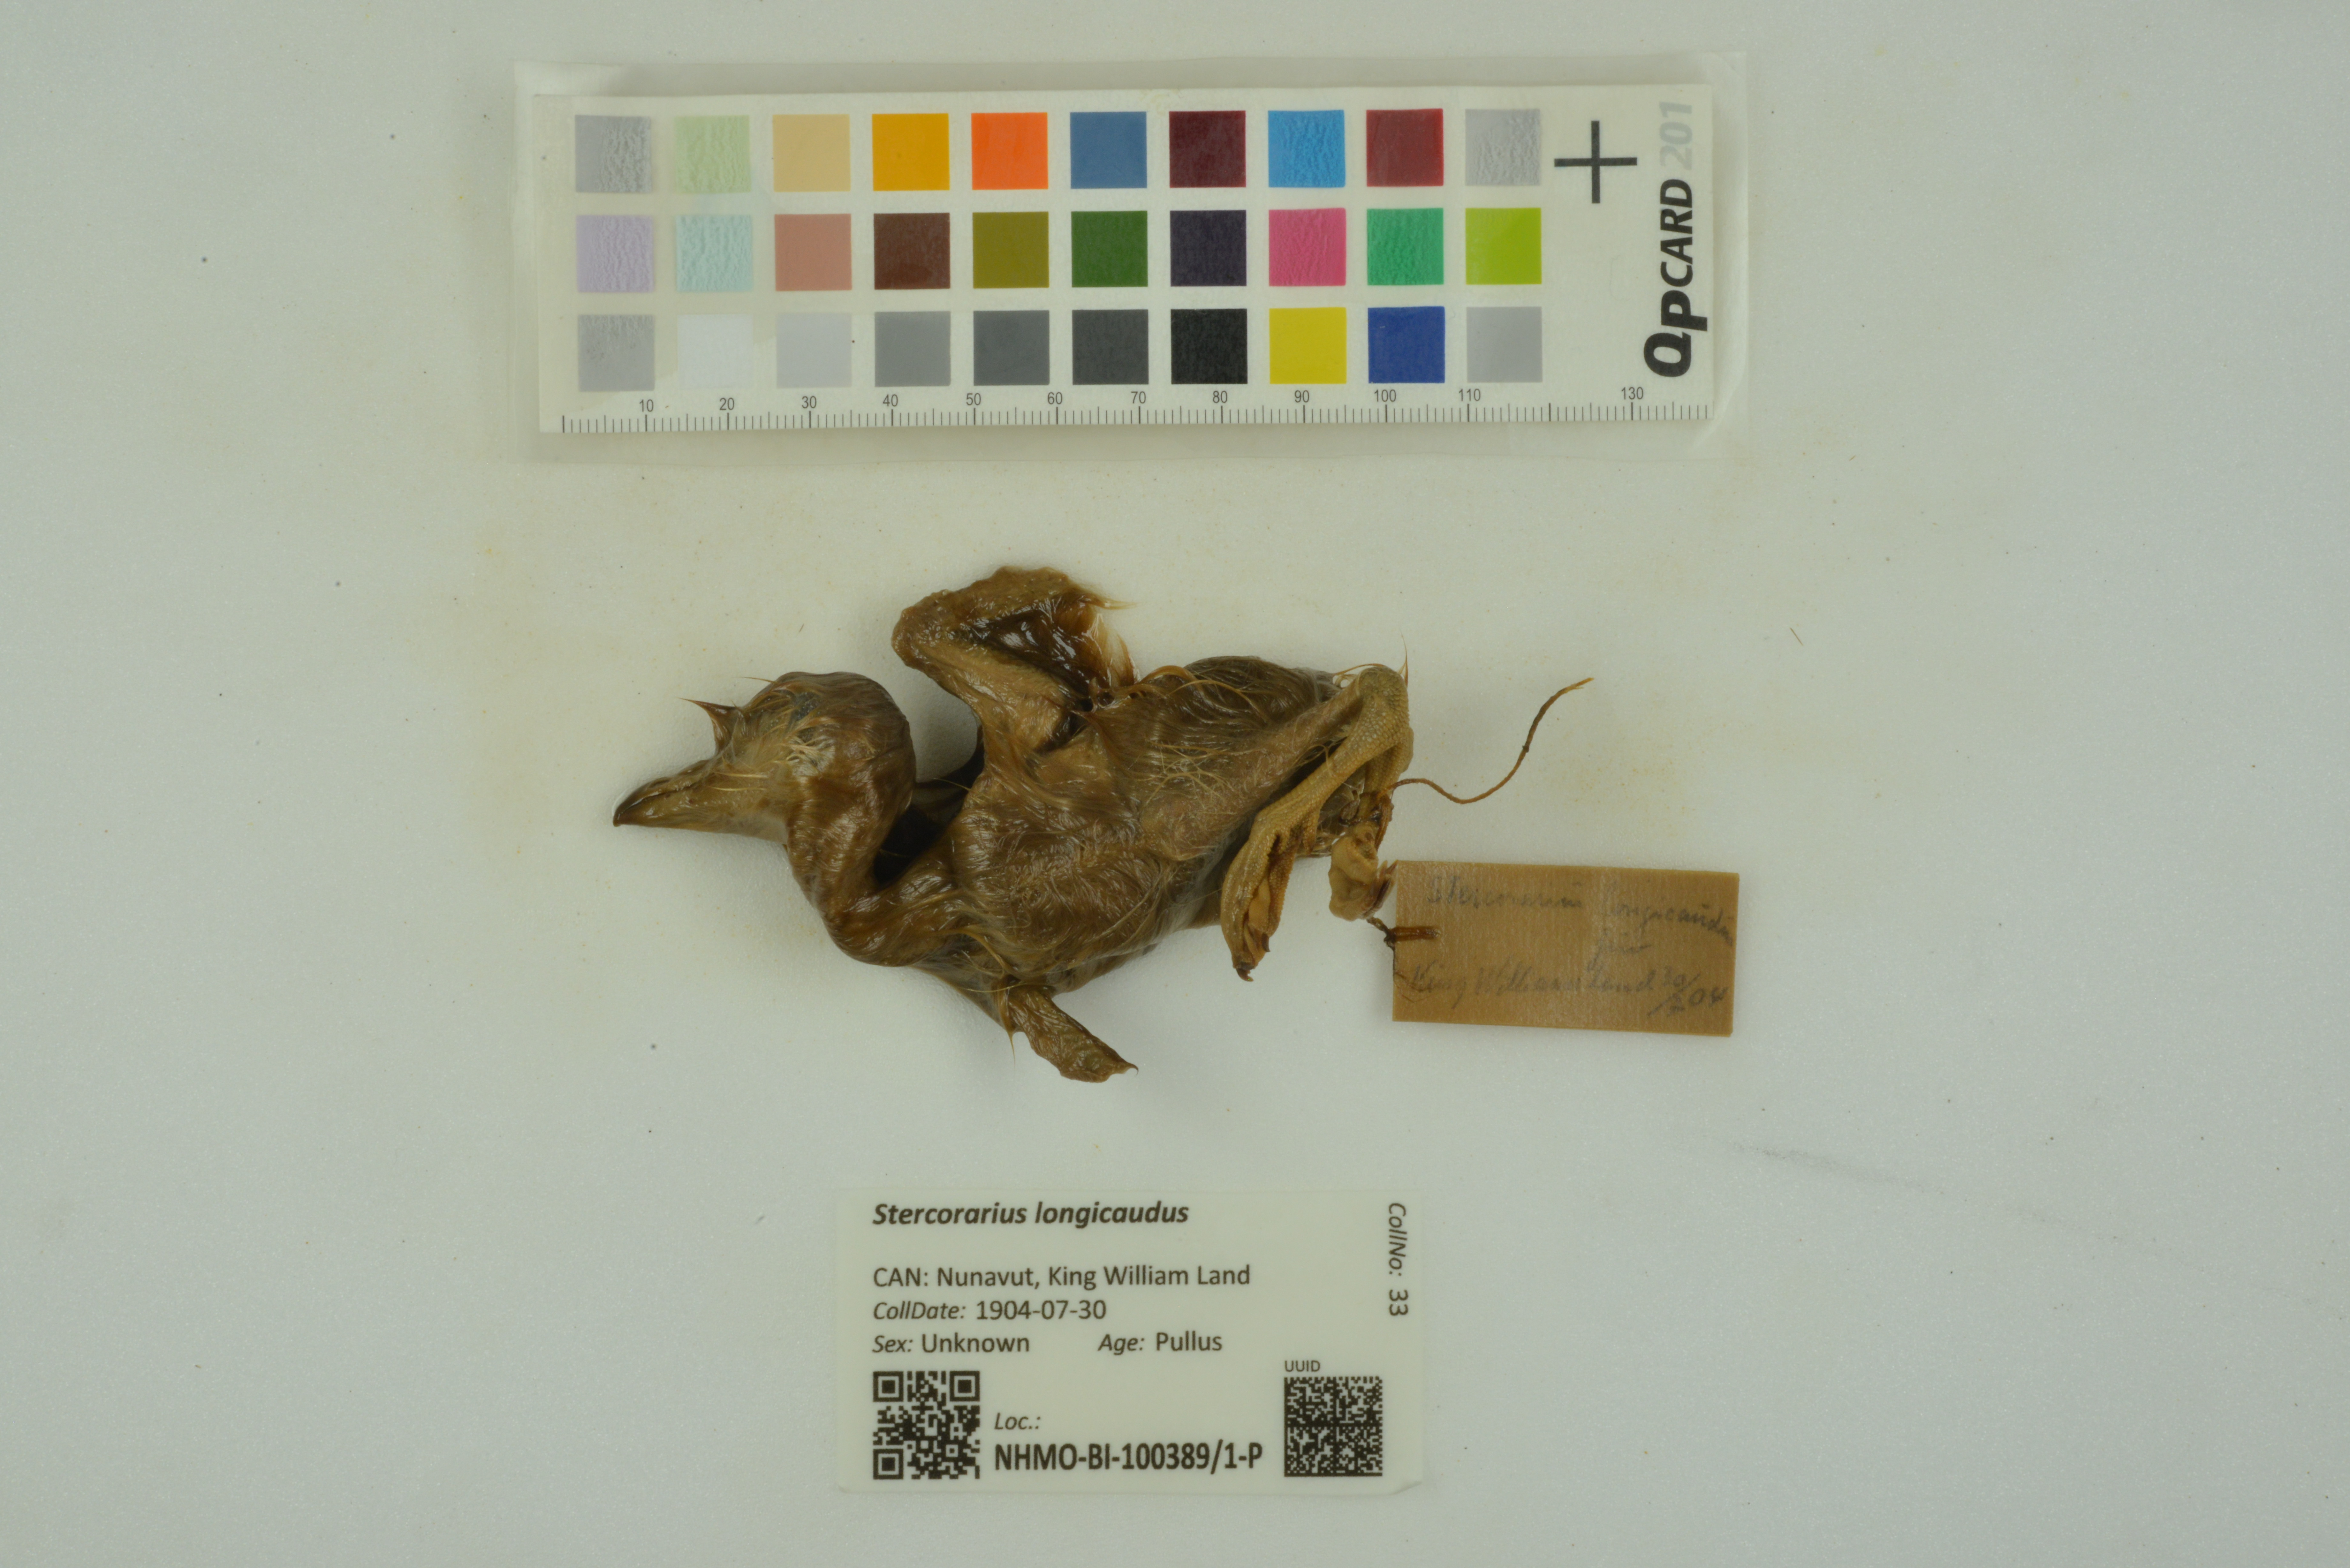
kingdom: Animalia
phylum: Chordata
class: Aves
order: Charadriiformes
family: Stercorariidae
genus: Stercorarius
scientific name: Stercorarius longicaudus
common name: Long-tailed jaeger
